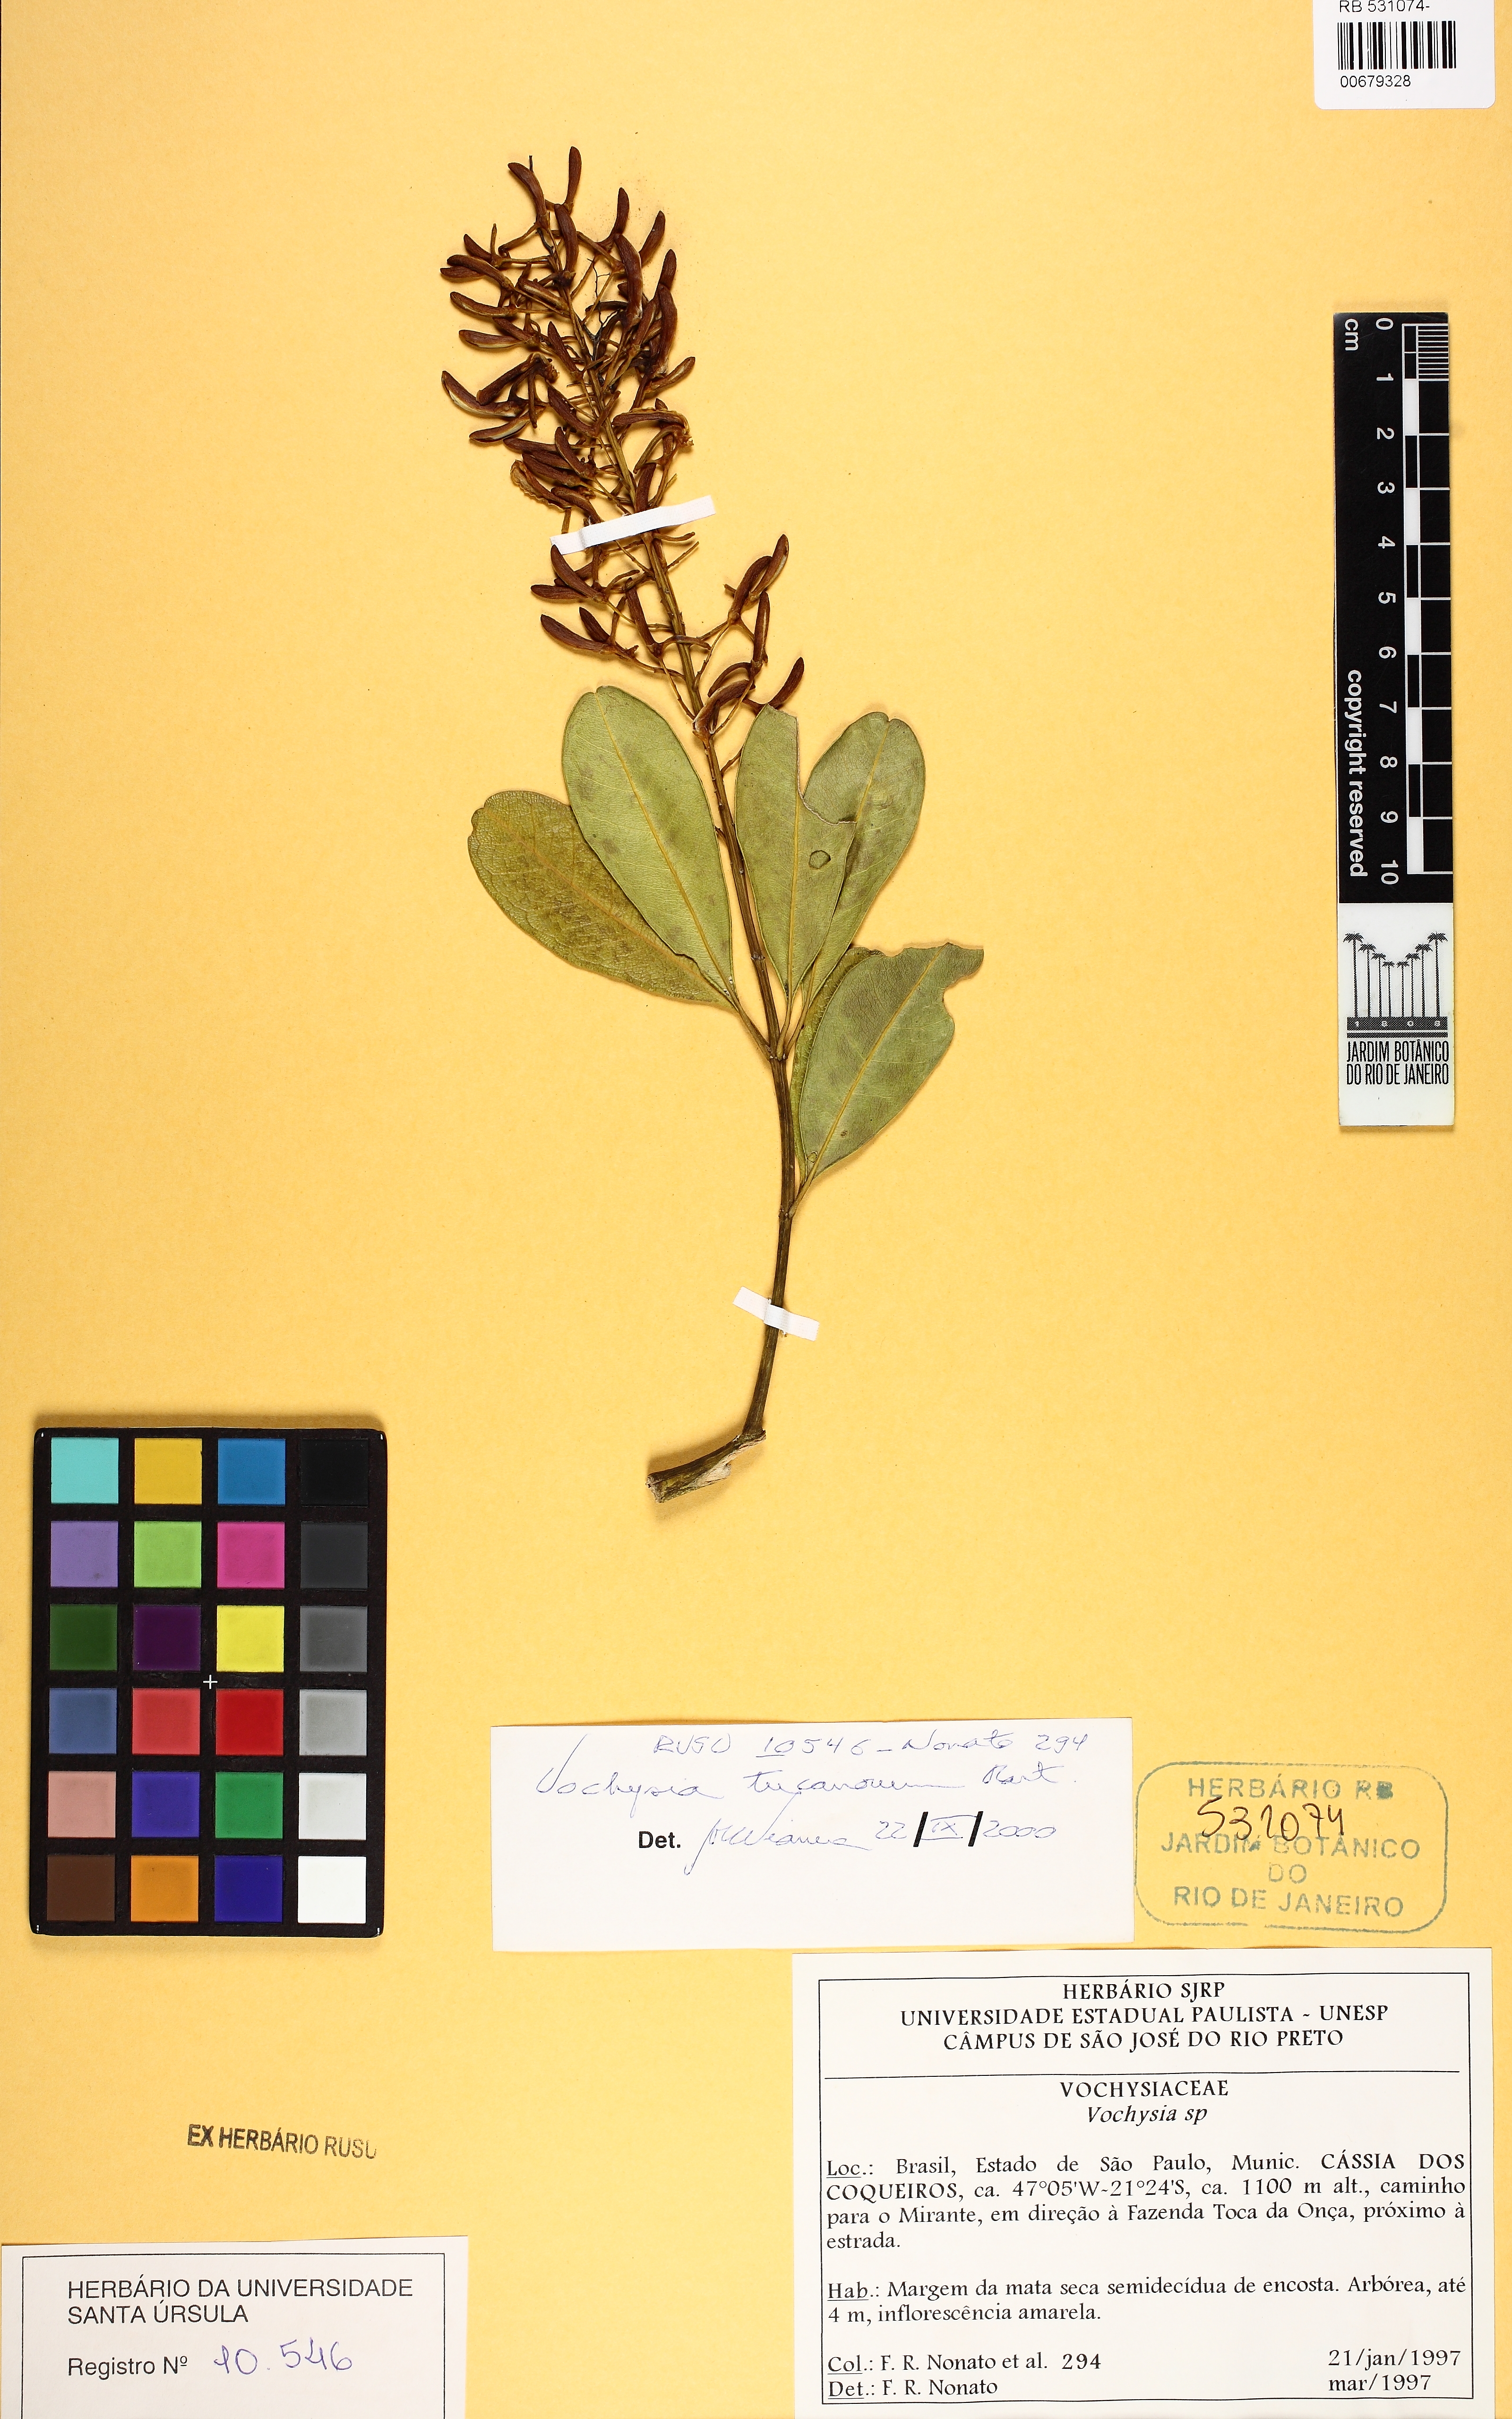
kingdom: Plantae
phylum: Tracheophyta
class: Magnoliopsida
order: Myrtales
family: Vochysiaceae
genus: Vochysia
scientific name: Vochysia tucanorum
